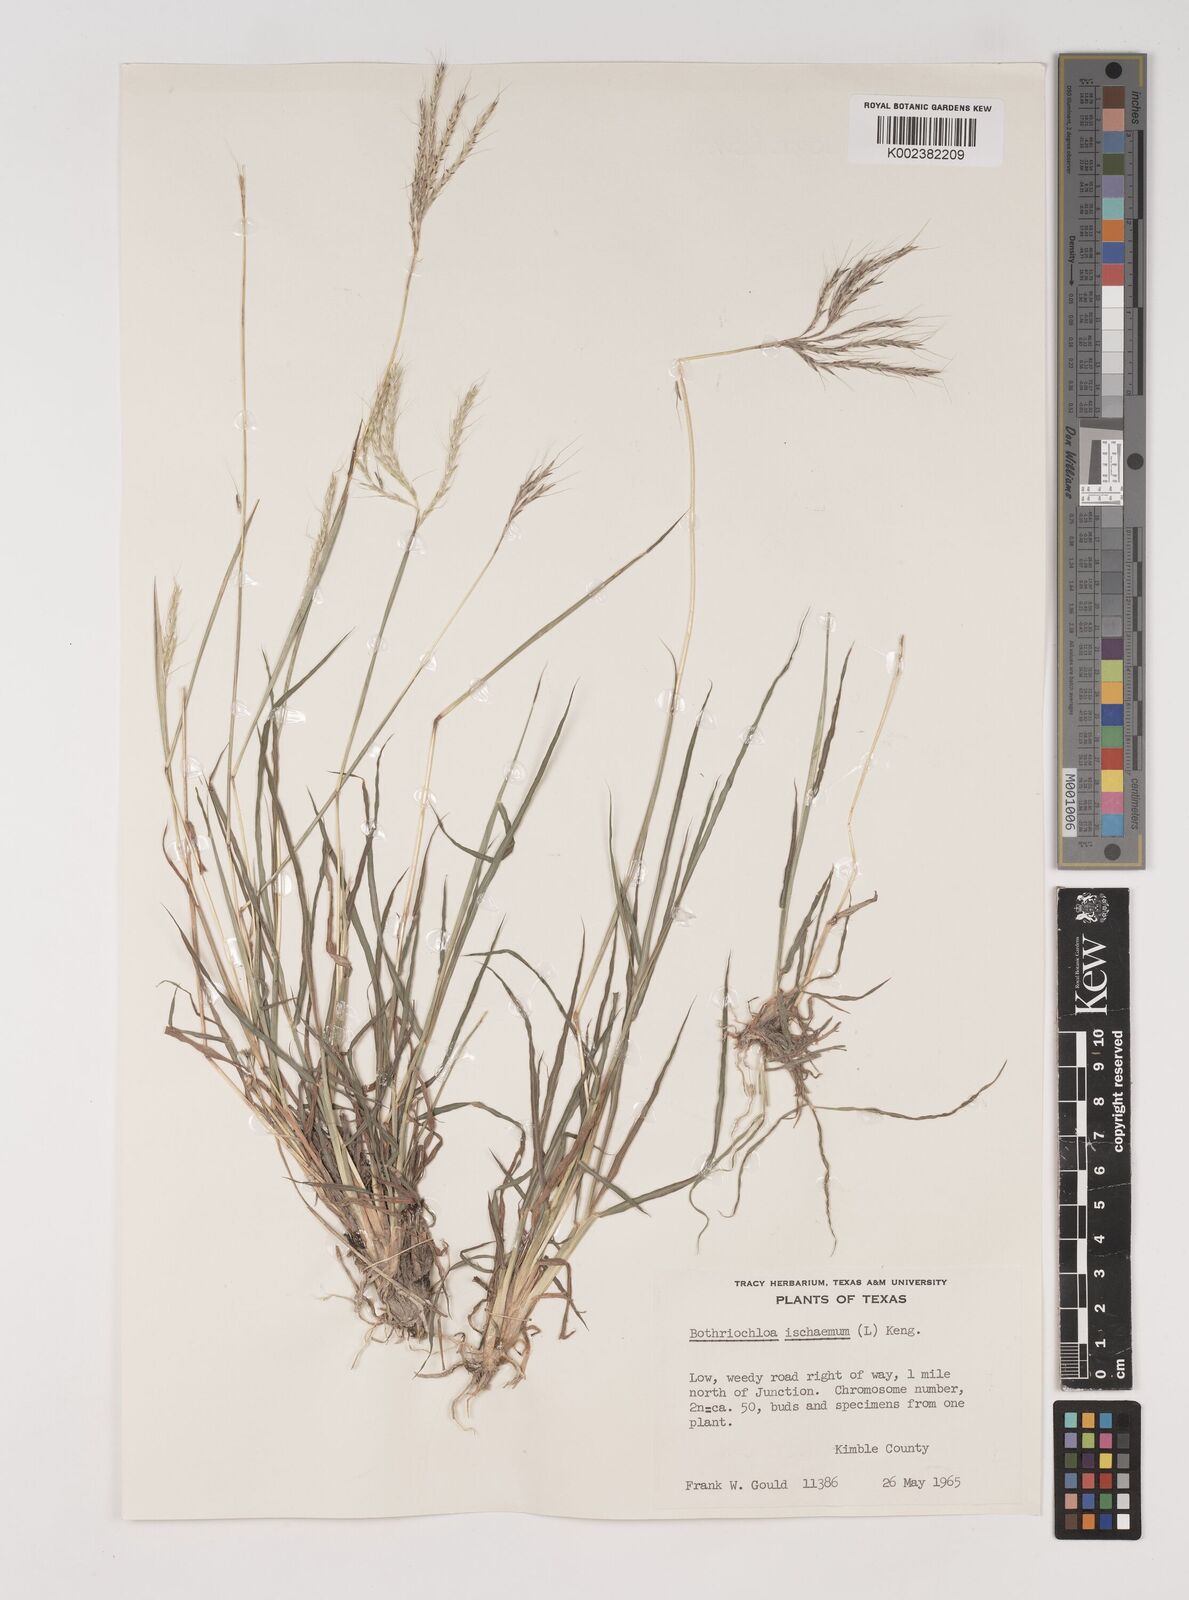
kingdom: Plantae
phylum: Tracheophyta
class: Liliopsida
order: Poales
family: Poaceae
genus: Bothriochloa
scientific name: Bothriochloa ischaemum
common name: Yellow bluestem
